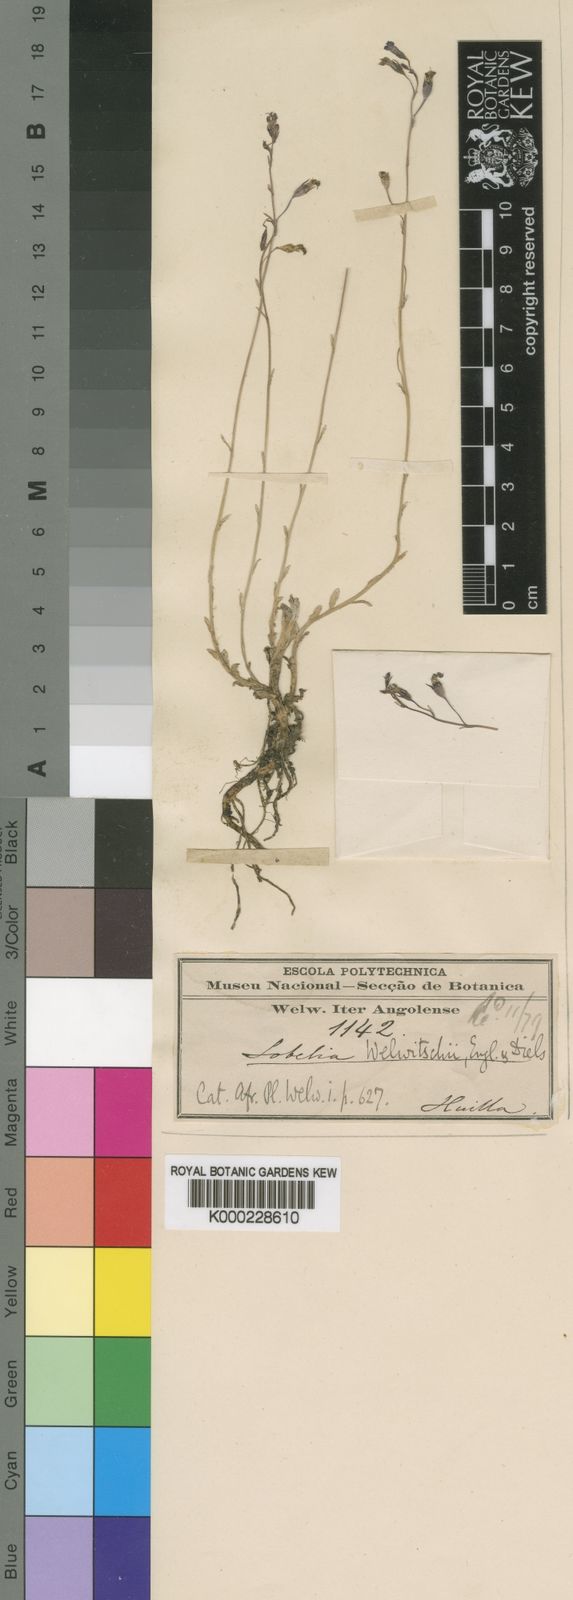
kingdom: Plantae
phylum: Tracheophyta
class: Magnoliopsida
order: Asterales
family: Campanulaceae
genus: Lobelia
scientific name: Lobelia welwitschii
